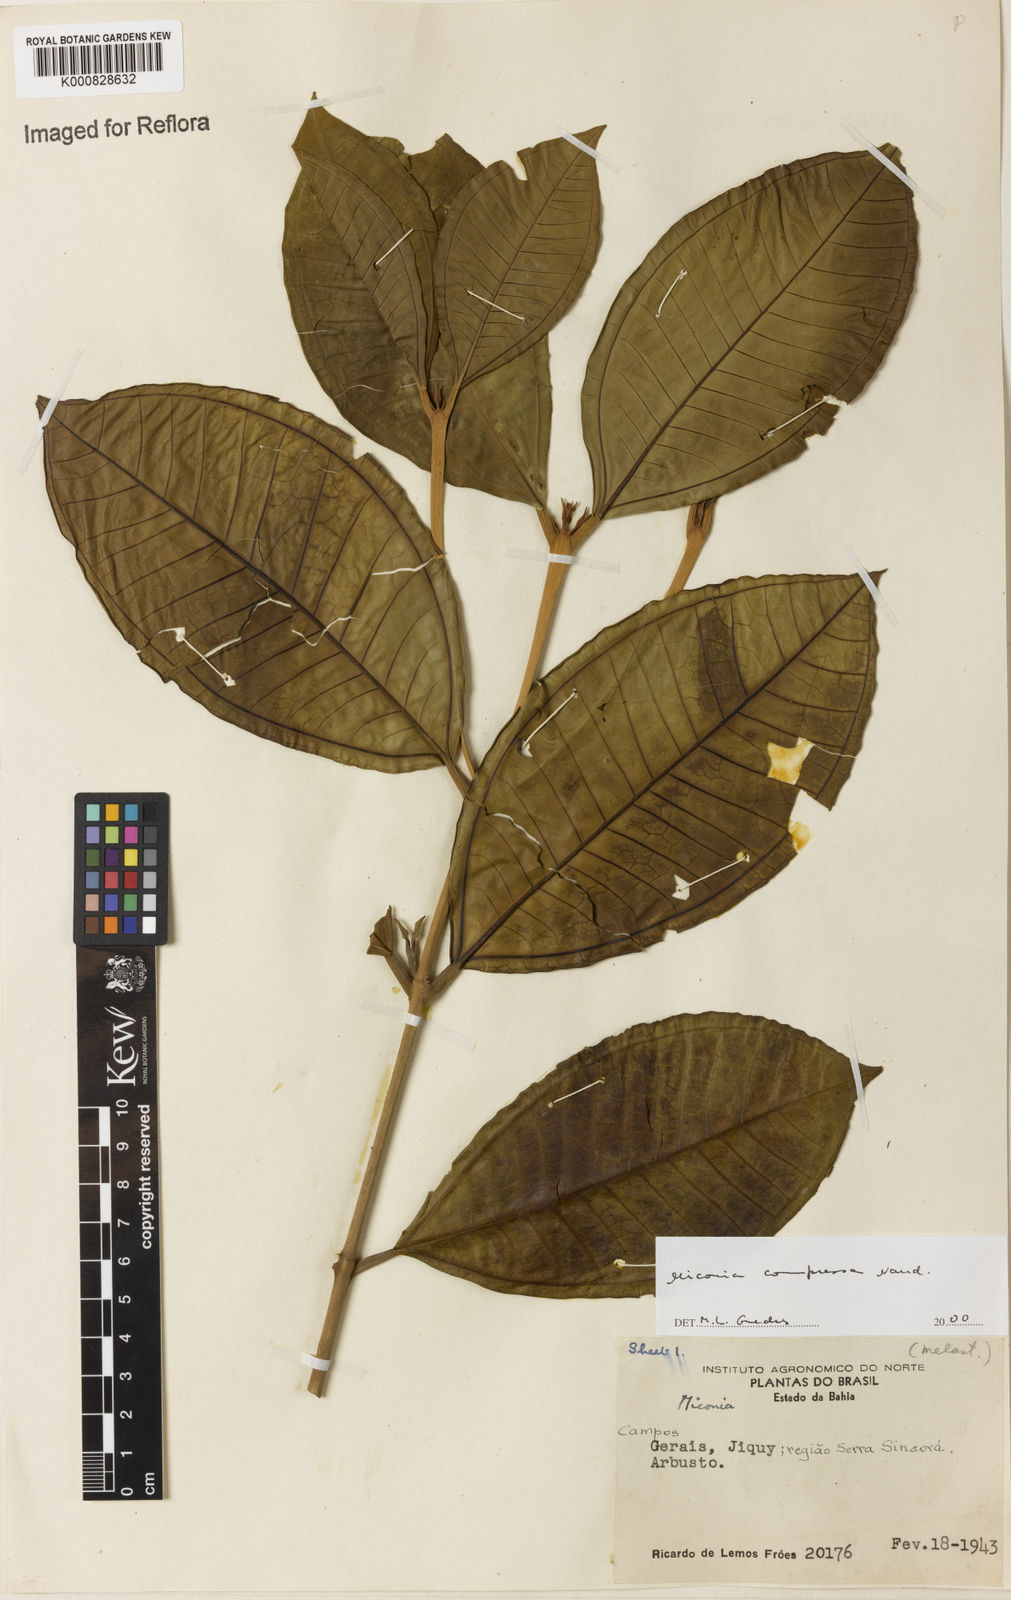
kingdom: Plantae
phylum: Tracheophyta
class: Magnoliopsida
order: Myrtales
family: Melastomataceae
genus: Miconia
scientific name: Miconia compressa
